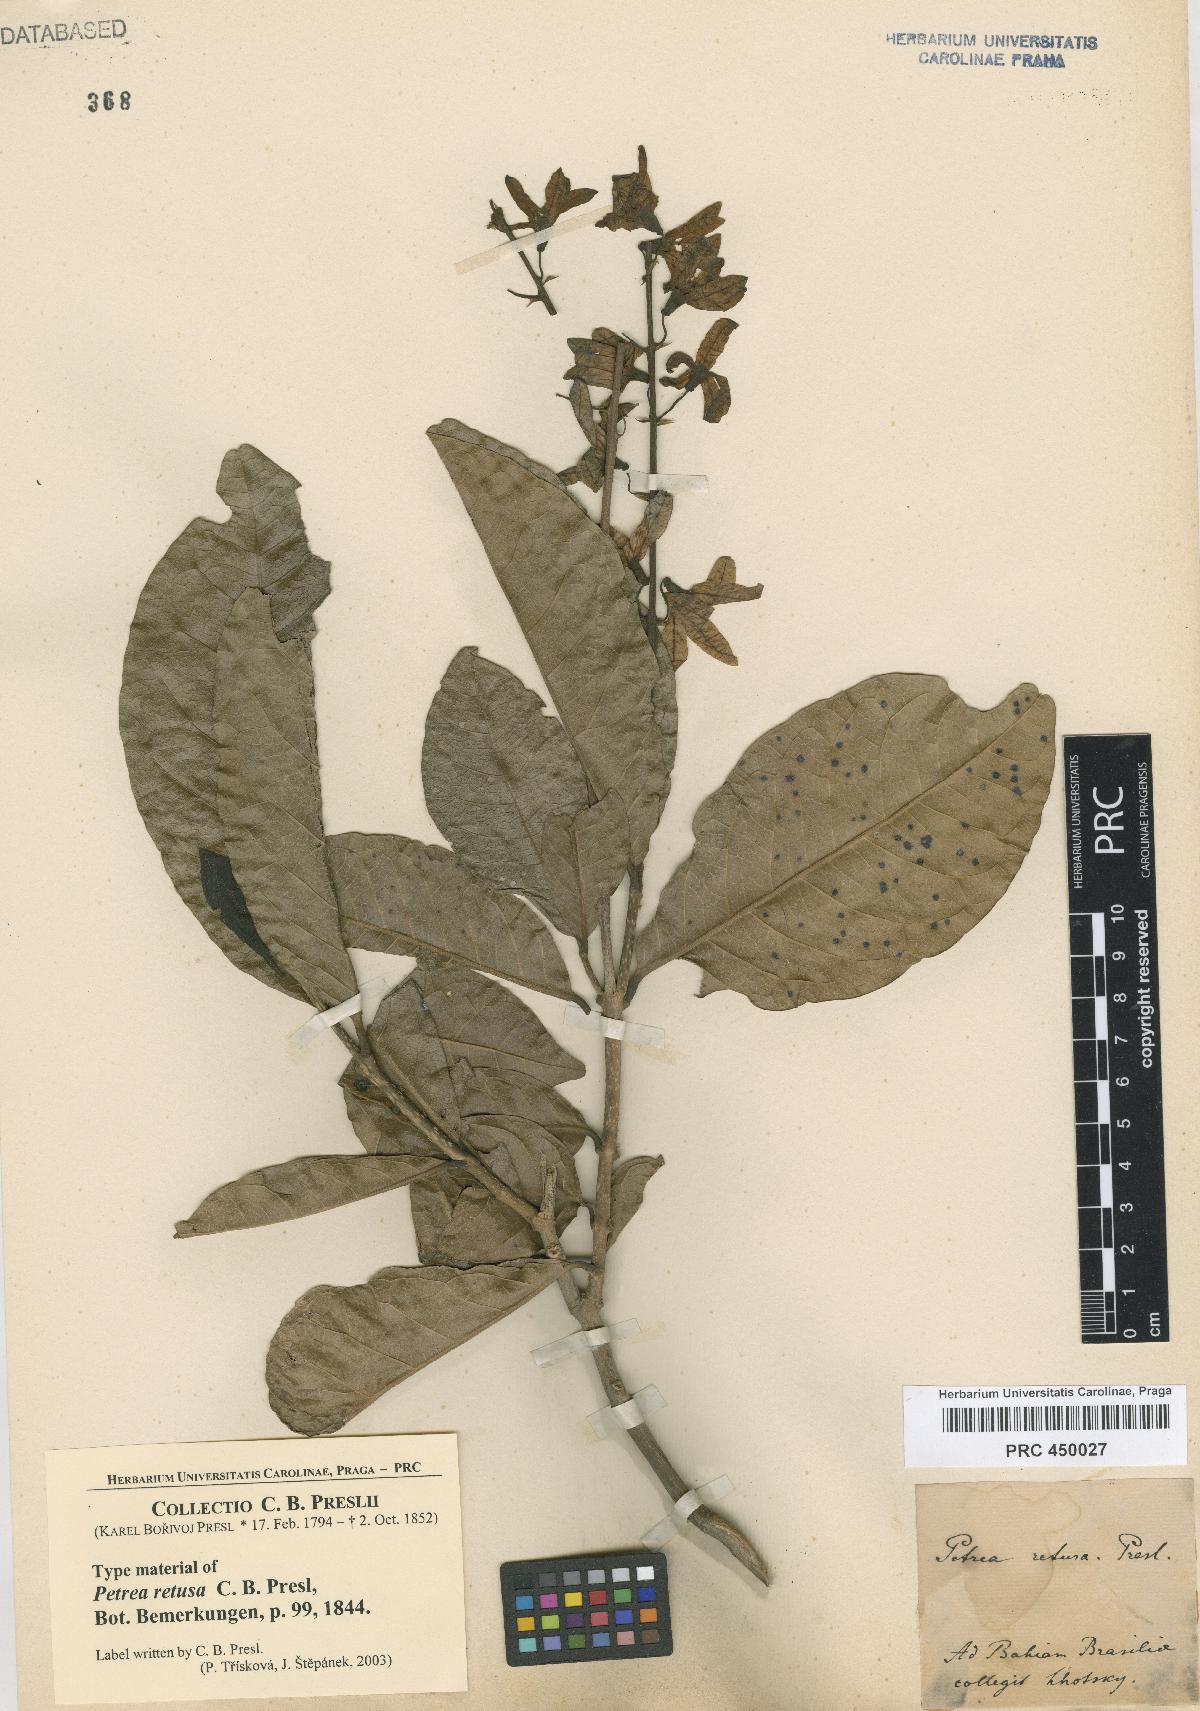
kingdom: Plantae
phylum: Tracheophyta
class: Magnoliopsida
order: Lamiales
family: Verbenaceae
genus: Petrea
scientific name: Petrea volubilis
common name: Queen's-wreath
